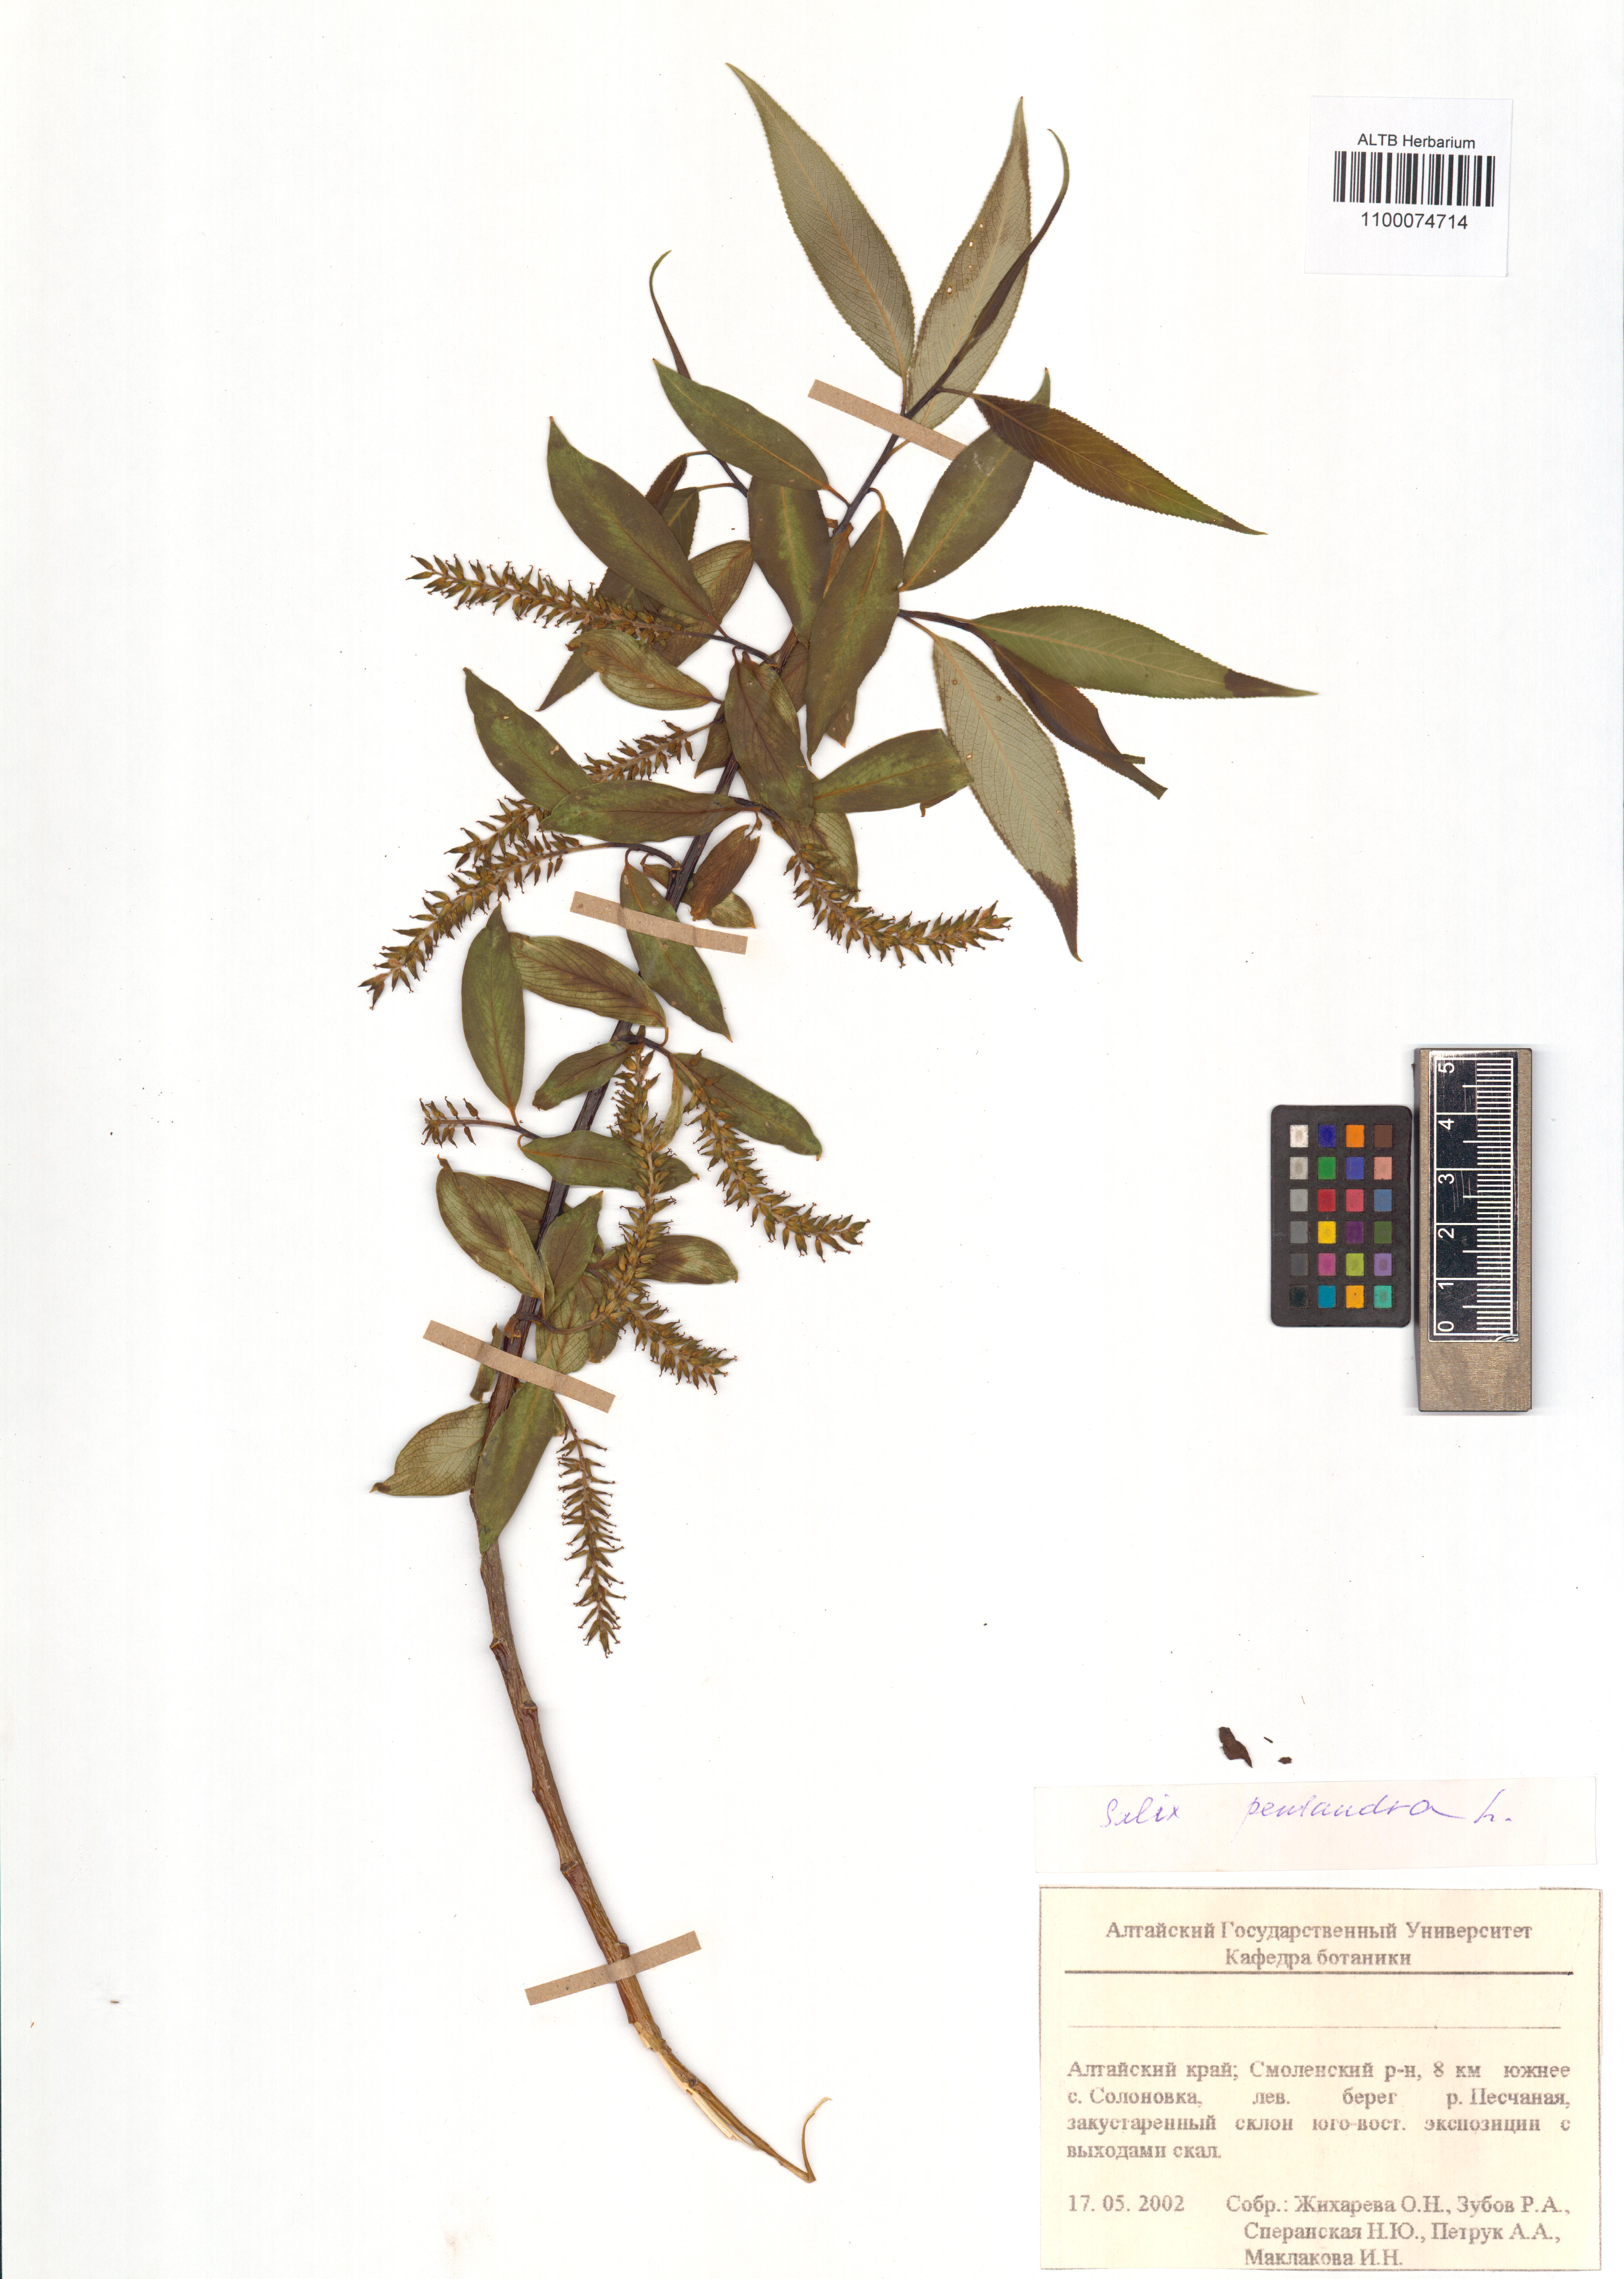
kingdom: Plantae
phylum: Tracheophyta
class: Magnoliopsida
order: Malpighiales
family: Salicaceae
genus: Salix
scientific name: Salix pentandra
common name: Bay willow
